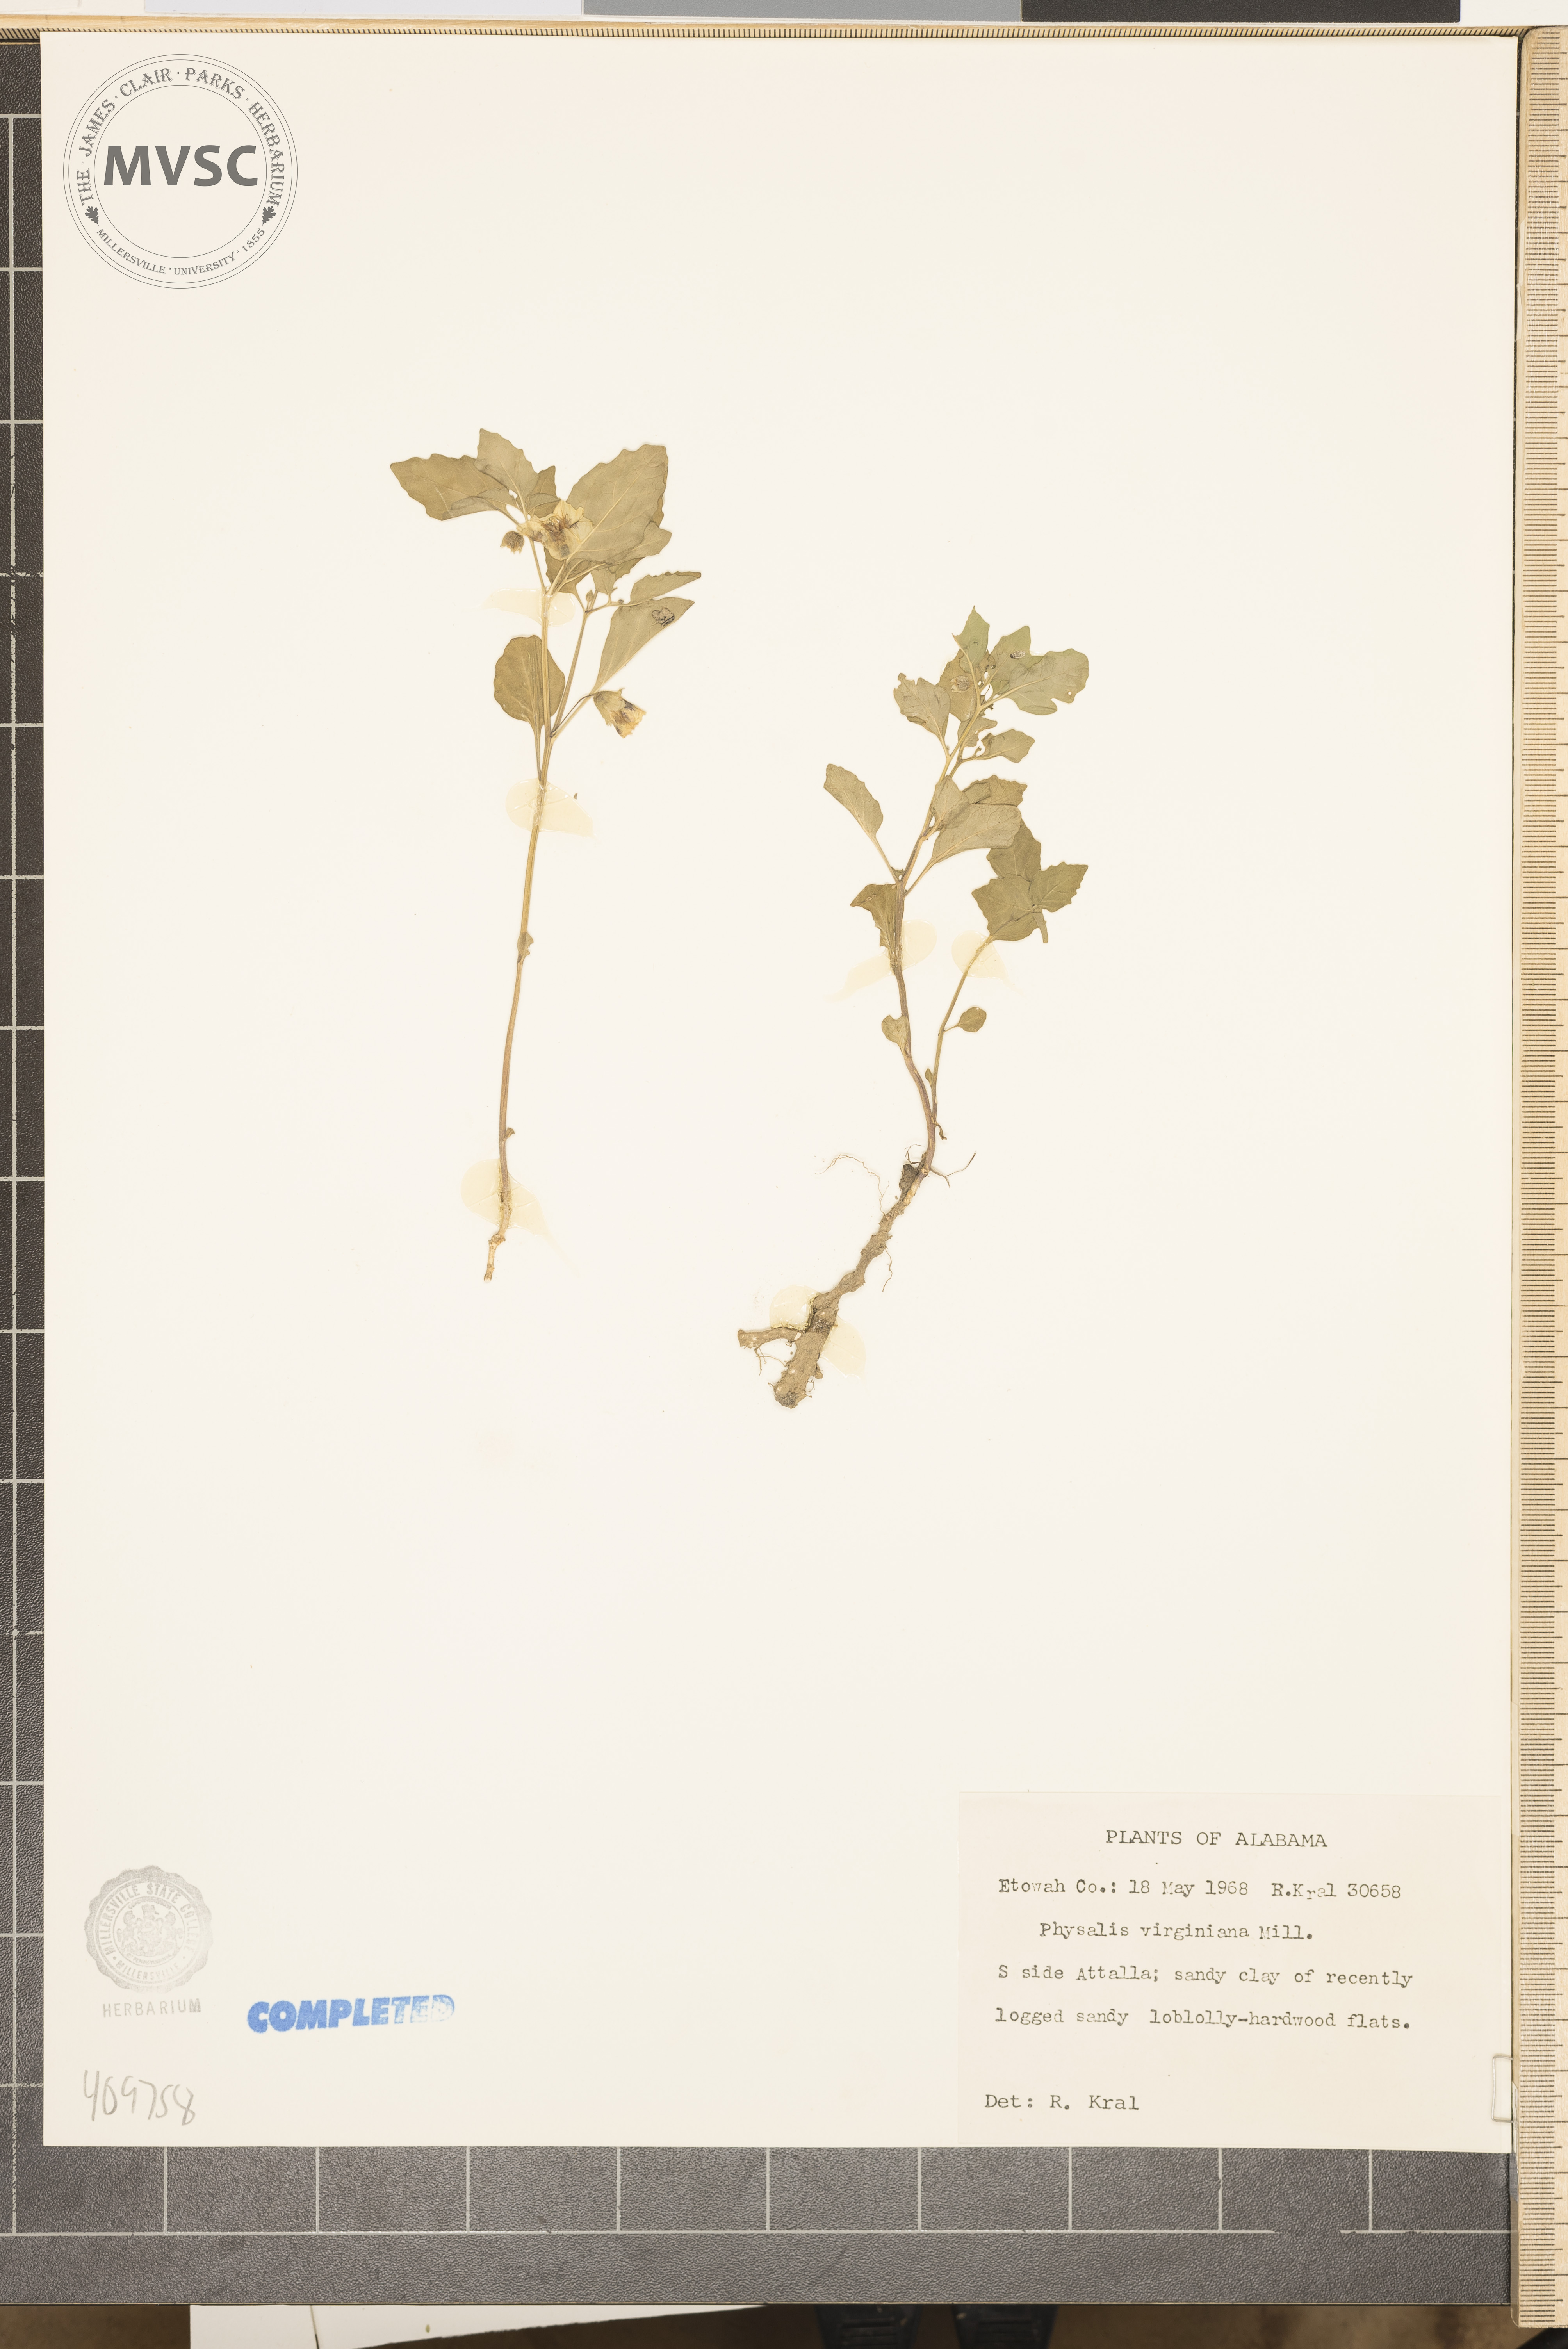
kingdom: Plantae
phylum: Tracheophyta
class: Magnoliopsida
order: Solanales
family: Solanaceae
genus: Physalis
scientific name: Physalis virginiana
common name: Virginia ground-cherry
